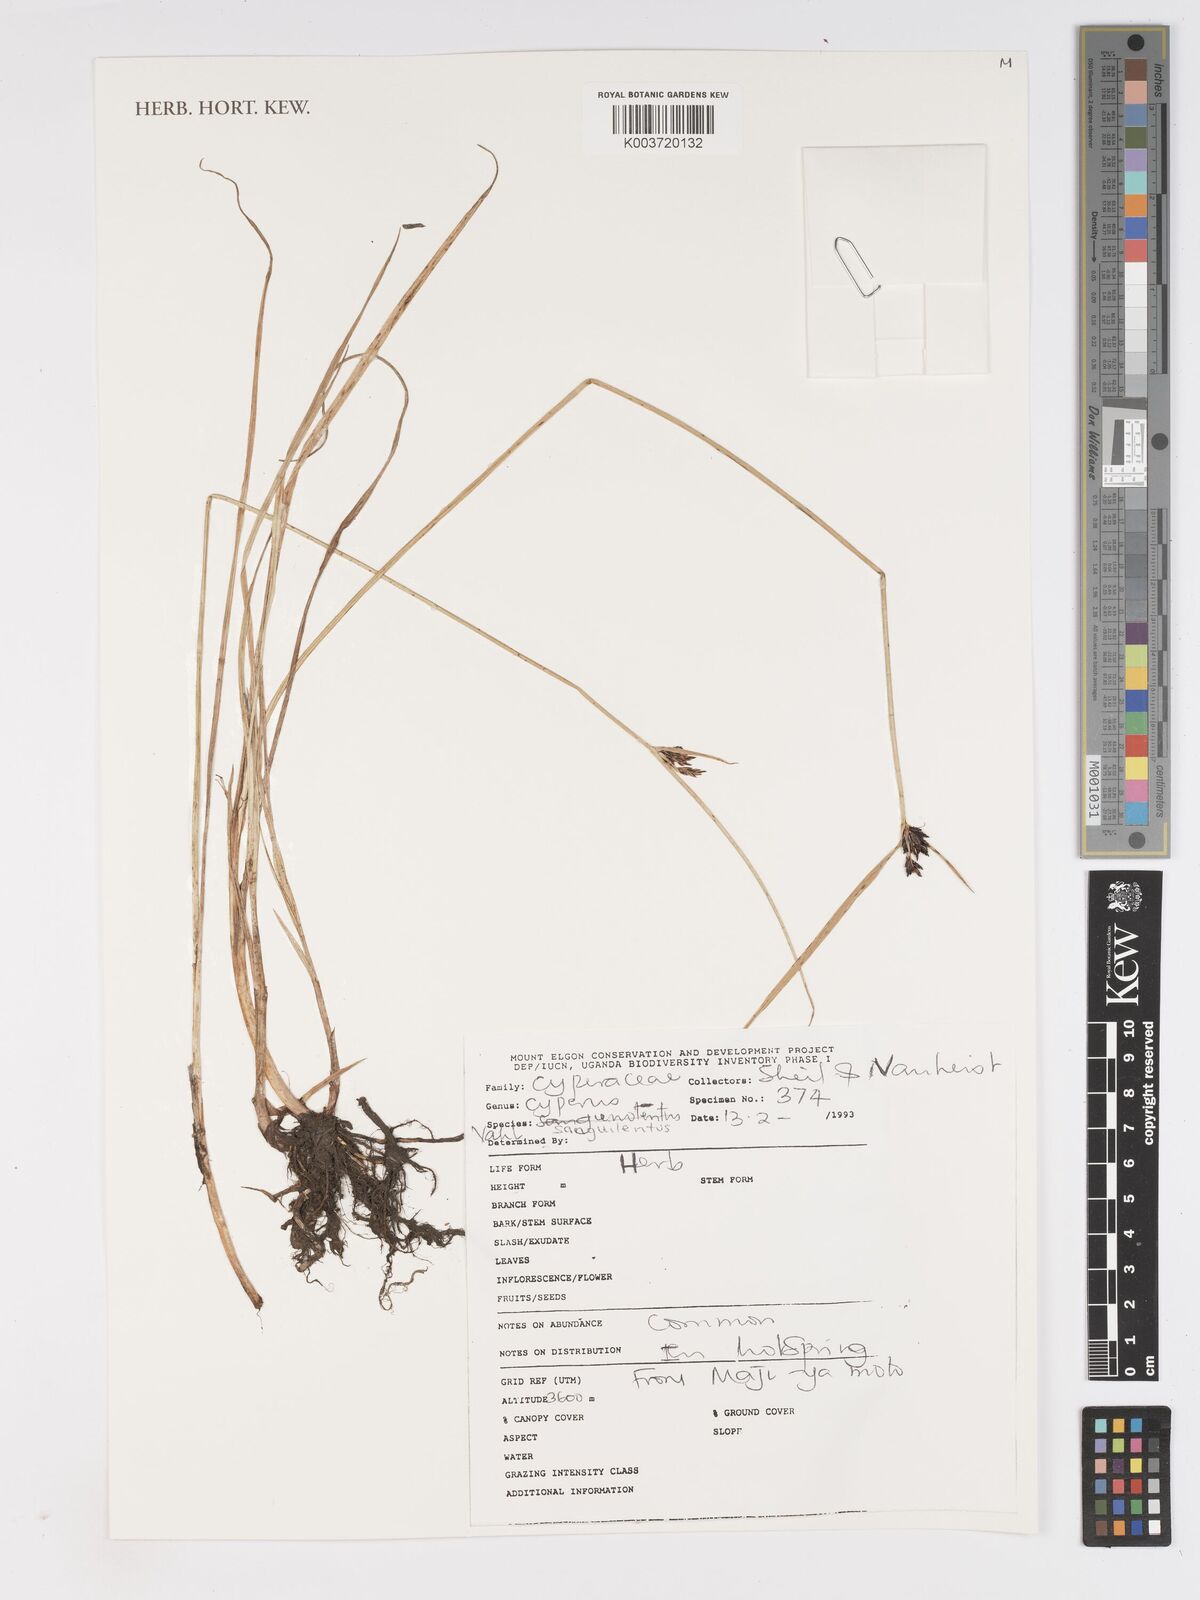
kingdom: Plantae
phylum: Tracheophyta
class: Liliopsida
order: Poales
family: Cyperaceae
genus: Cyperus
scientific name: Cyperus sanguinolentus
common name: Purpleglume flatsedge
